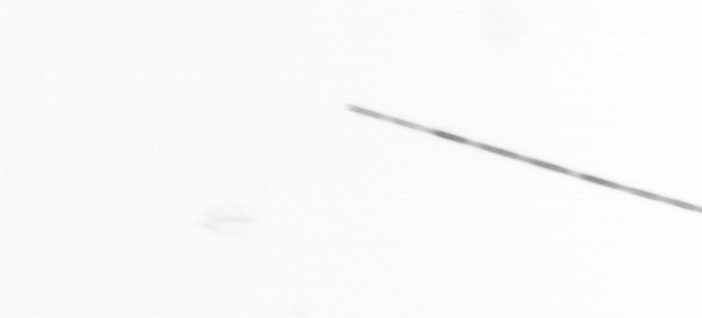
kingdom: Chromista
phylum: Ochrophyta
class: Bacillariophyceae
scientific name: Bacillariophyceae
